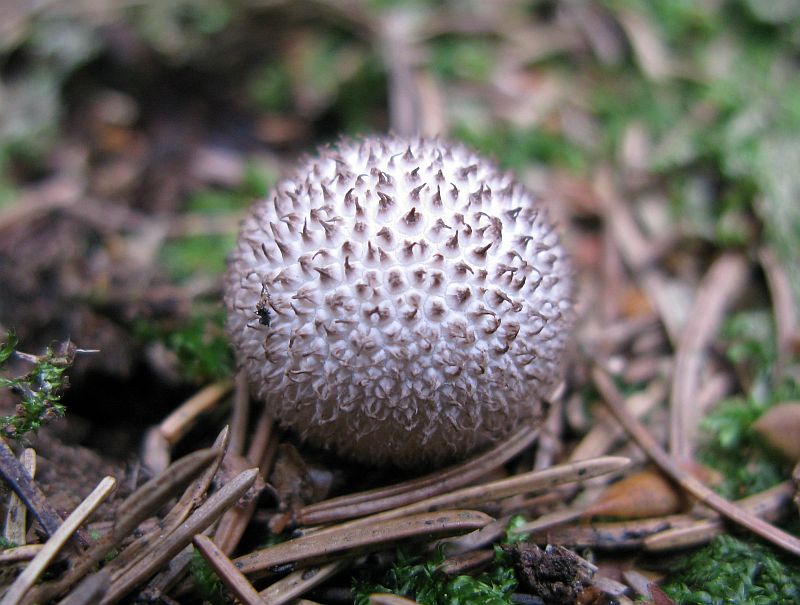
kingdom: Fungi
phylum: Basidiomycota
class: Agaricomycetes
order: Agaricales
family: Lycoperdaceae
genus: Lycoperdon
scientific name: Lycoperdon nigrescens
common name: sortagtig støvbold
